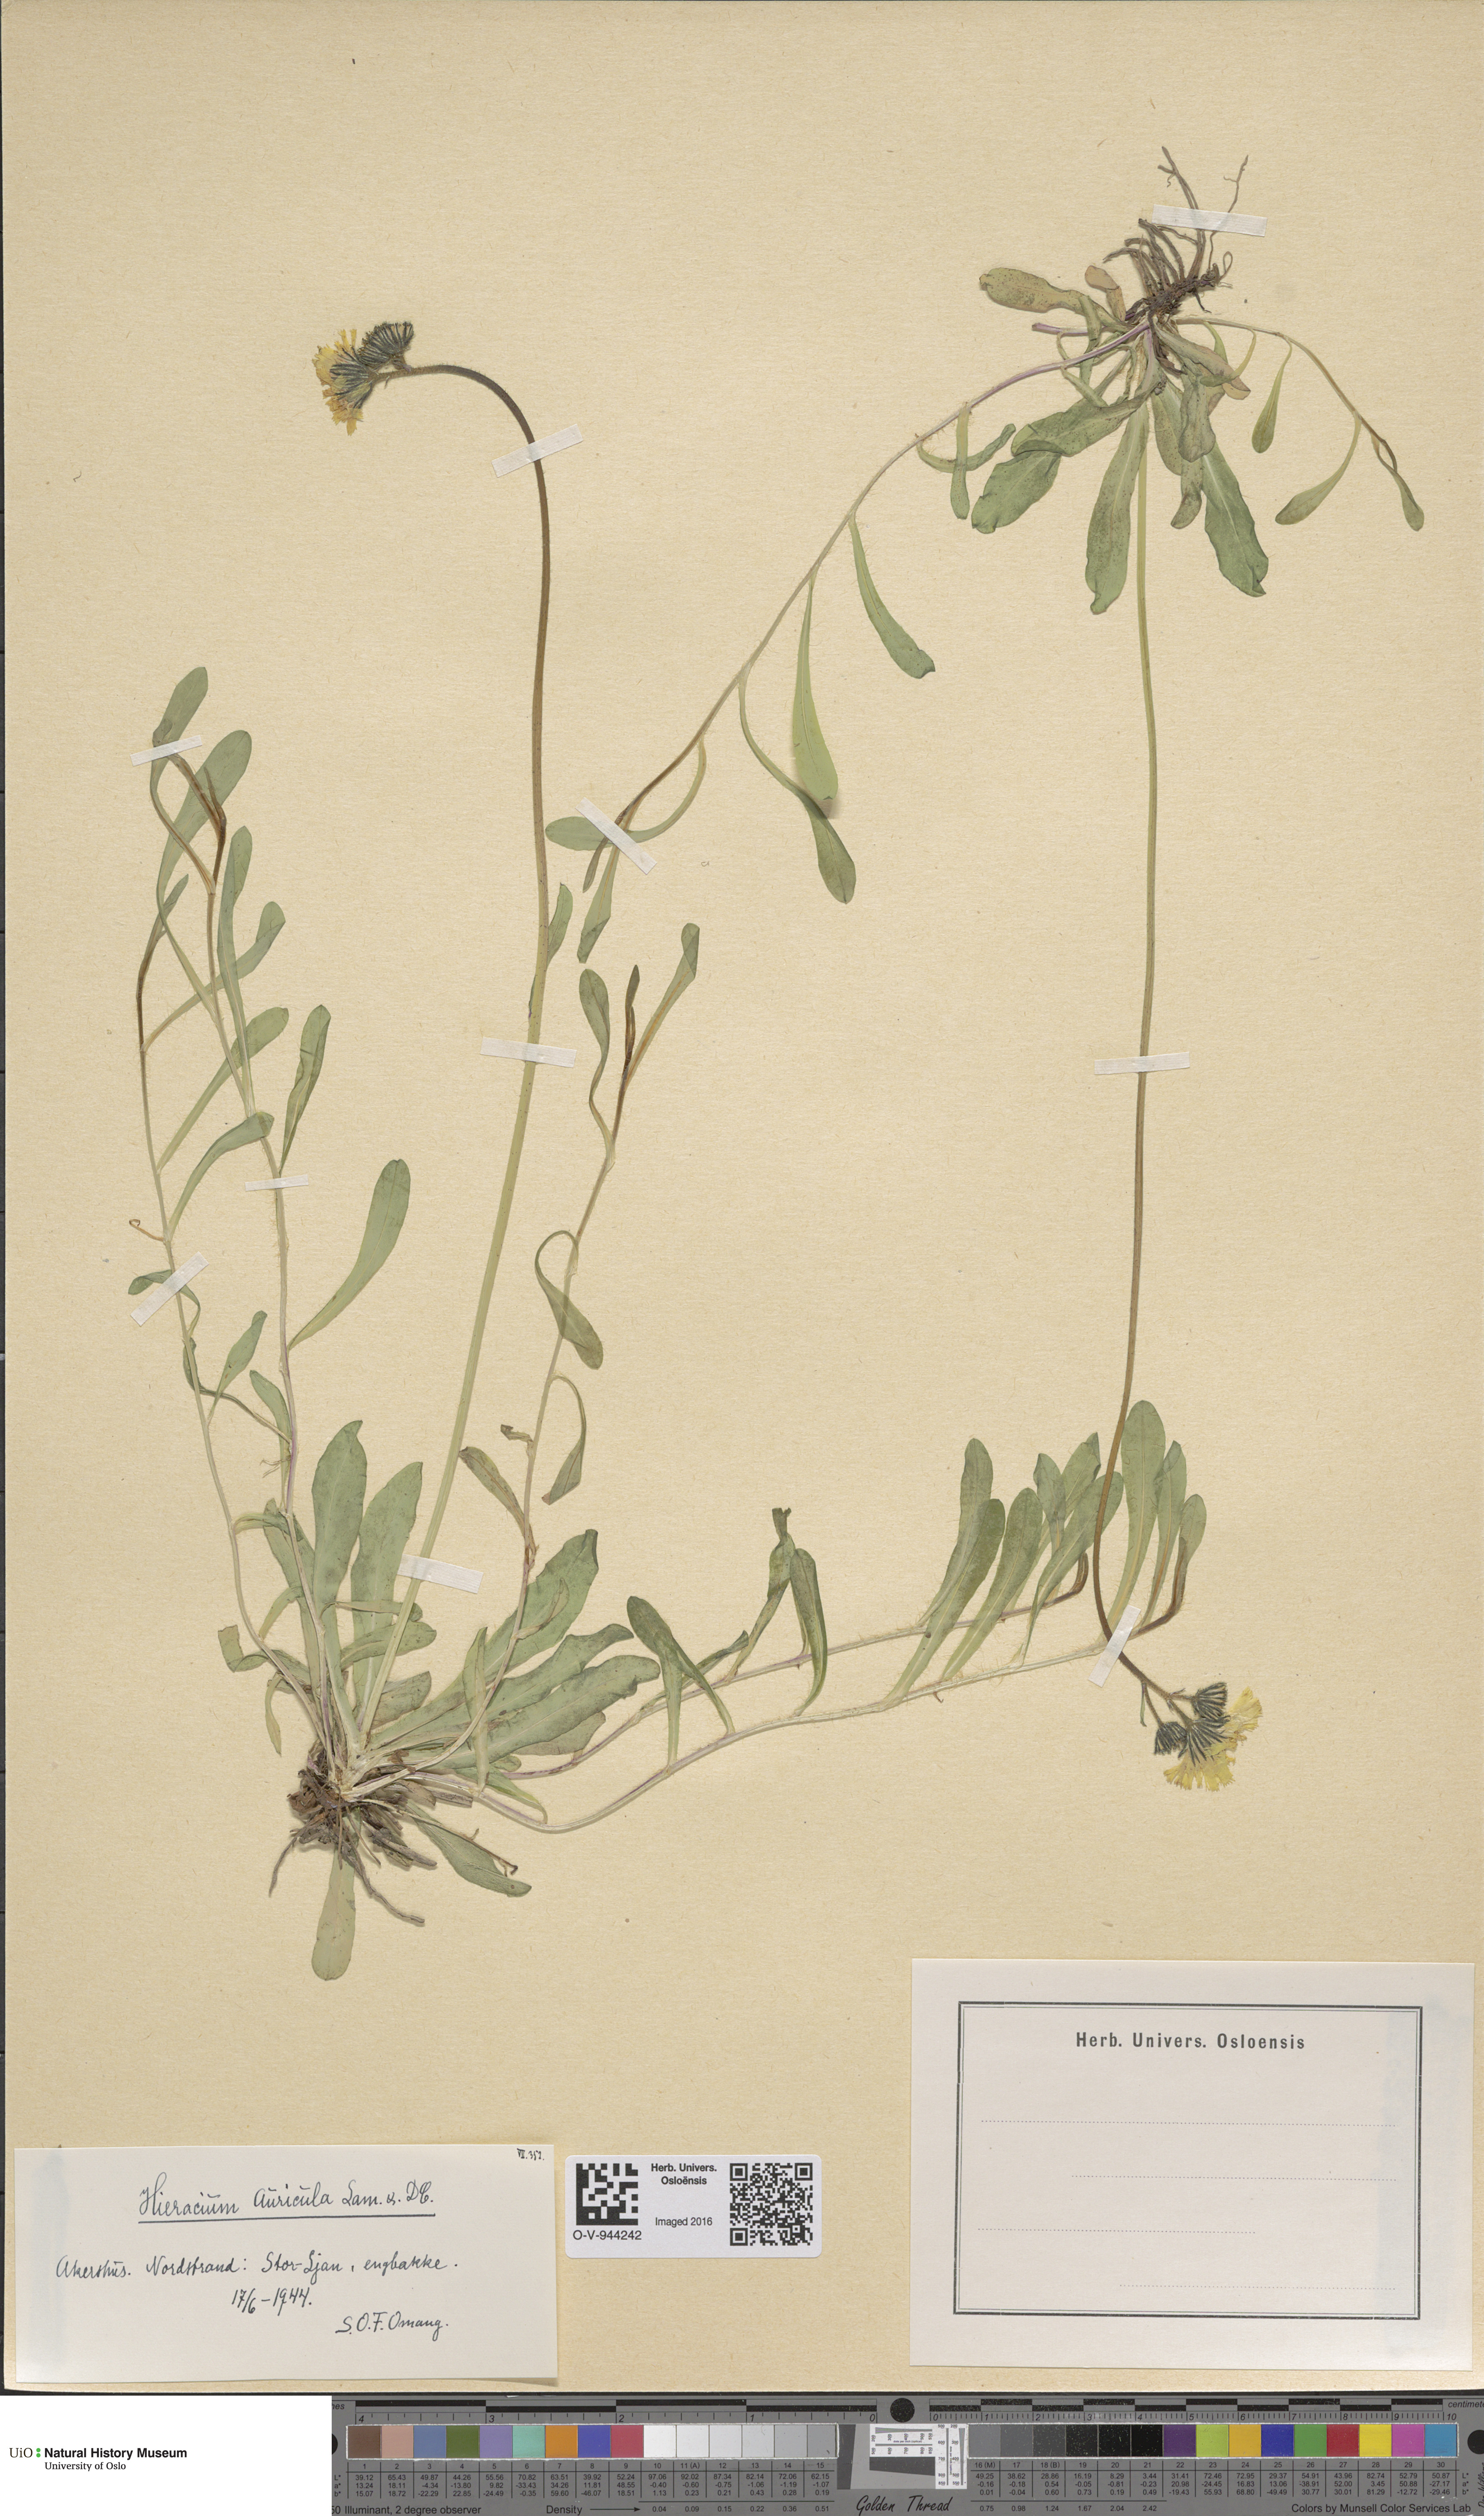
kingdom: Plantae
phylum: Tracheophyta
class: Magnoliopsida
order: Asterales
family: Asteraceae
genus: Pilosella
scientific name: Pilosella lactucella
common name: Glaucous fox-and-cubs
